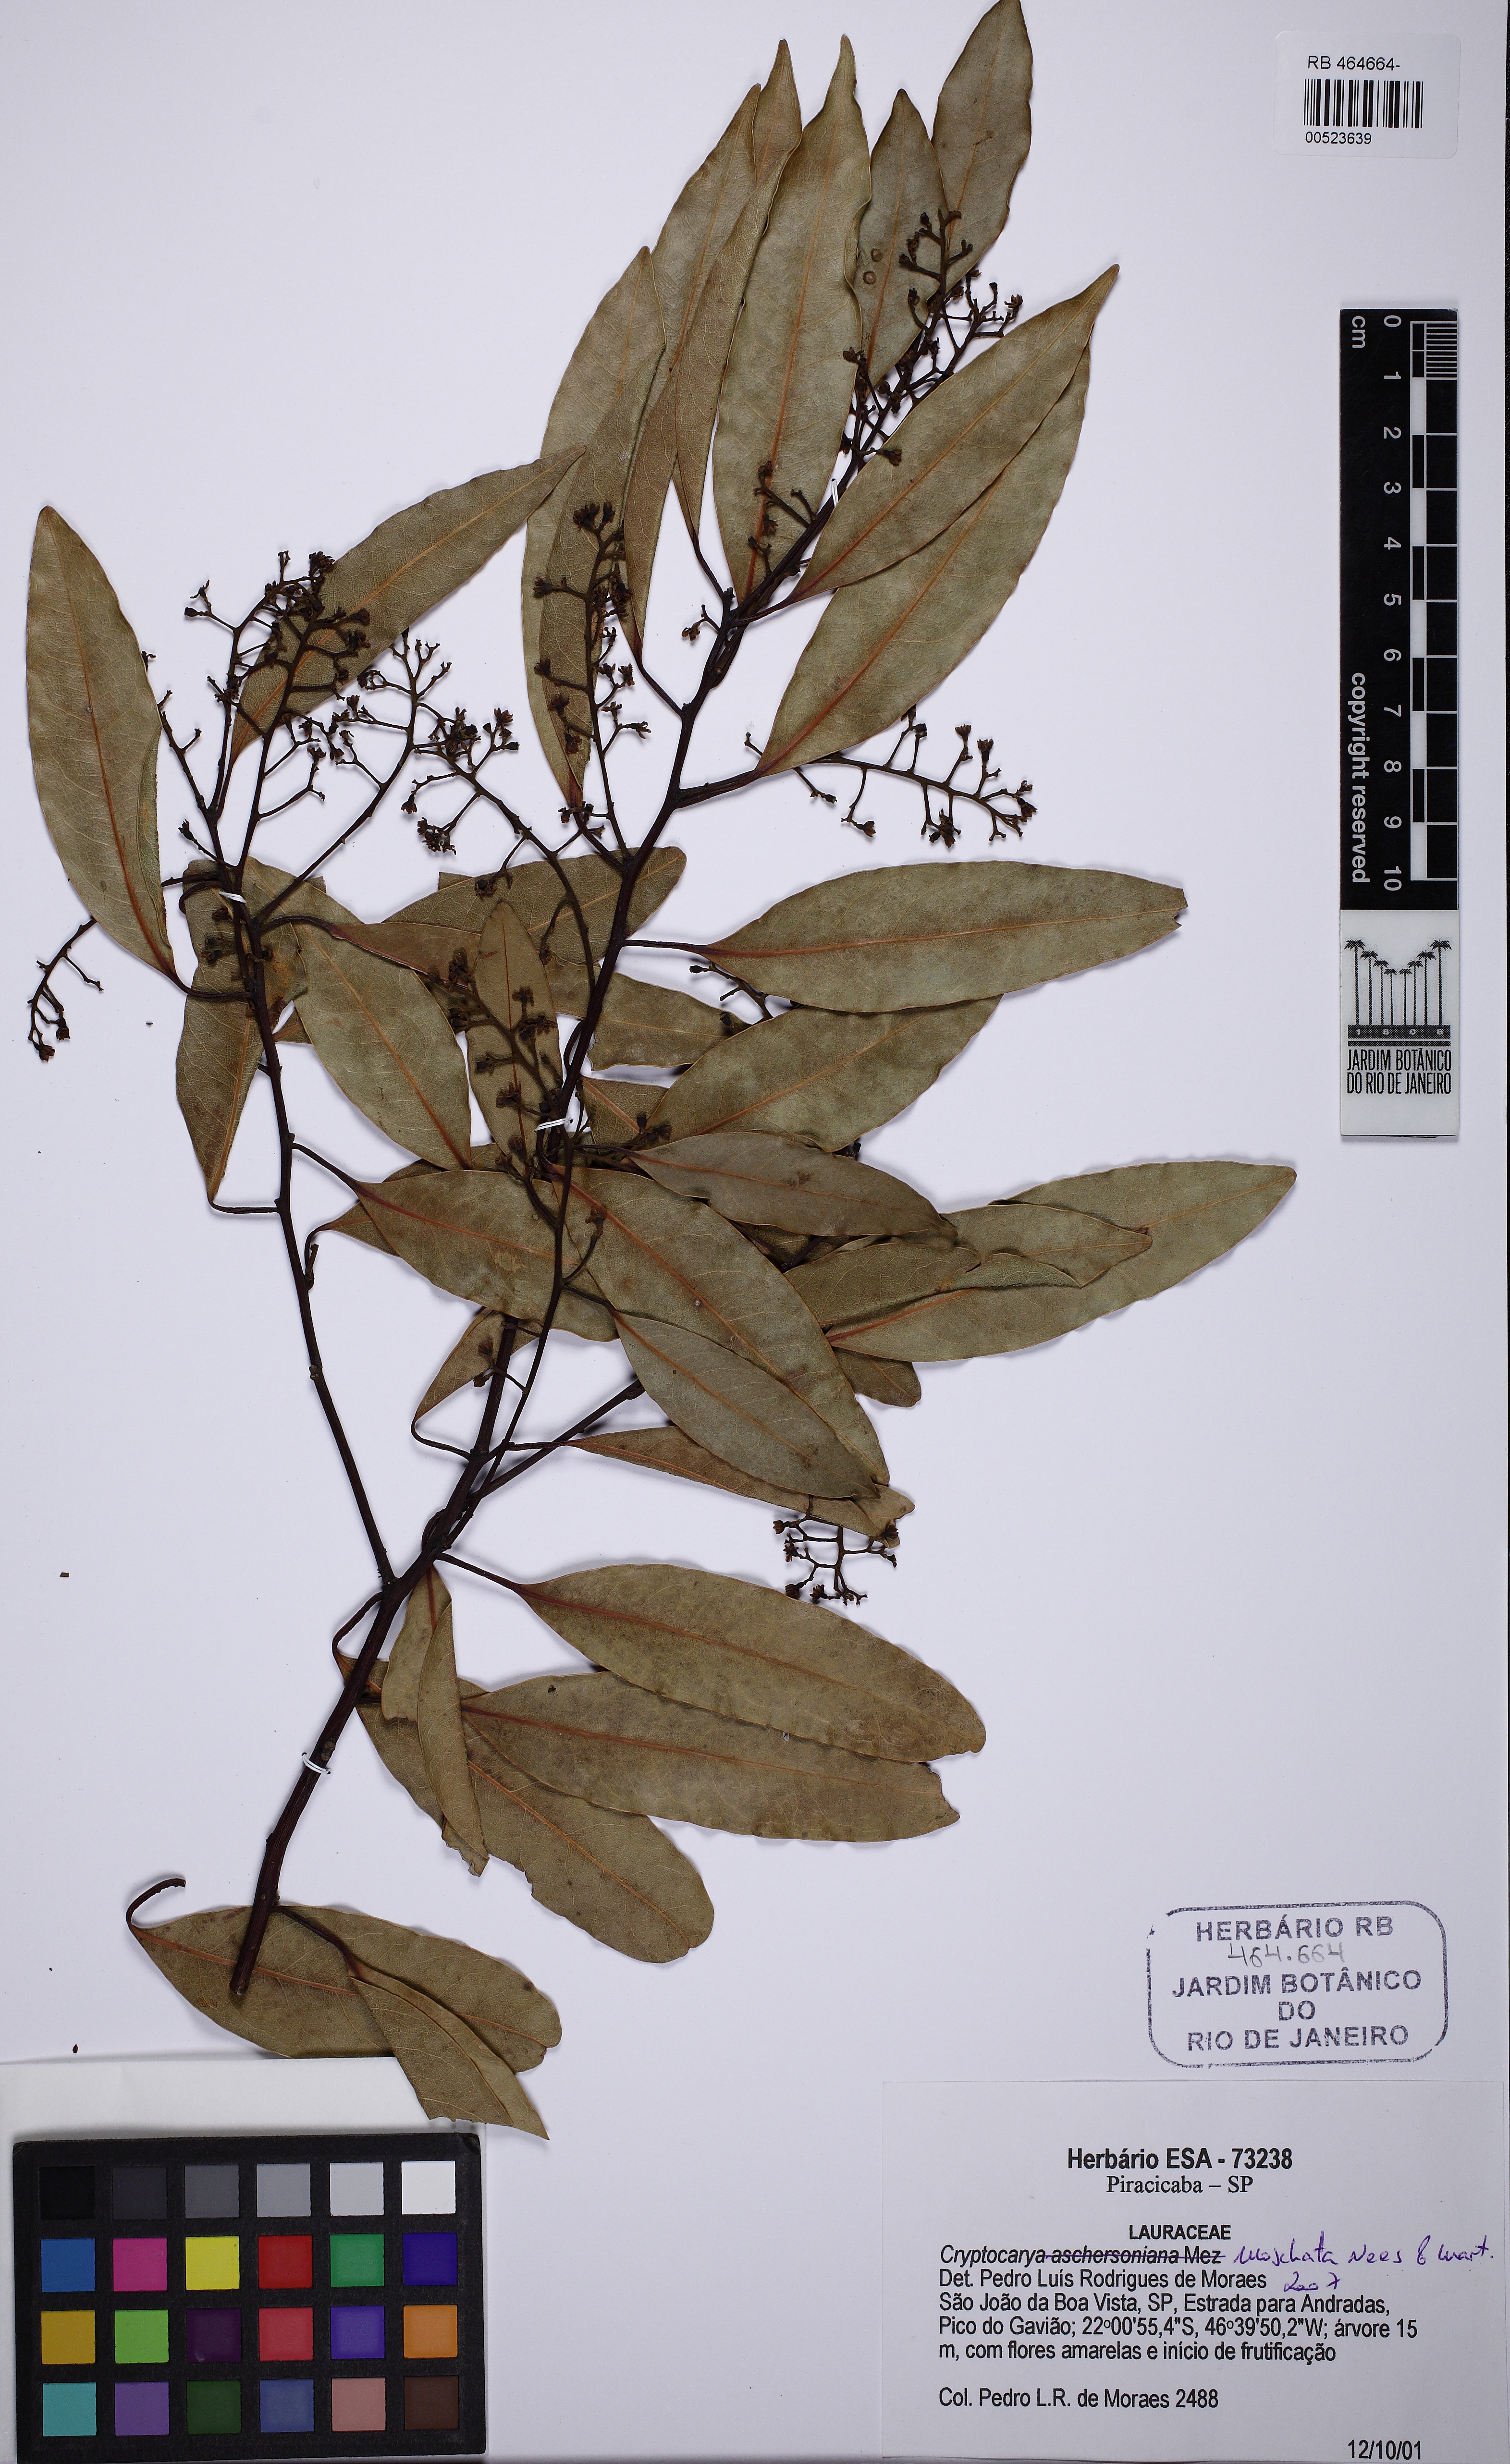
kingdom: Plantae
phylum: Tracheophyta
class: Magnoliopsida
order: Laurales
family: Lauraceae
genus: Cryptocarya
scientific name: Cryptocarya moschata
